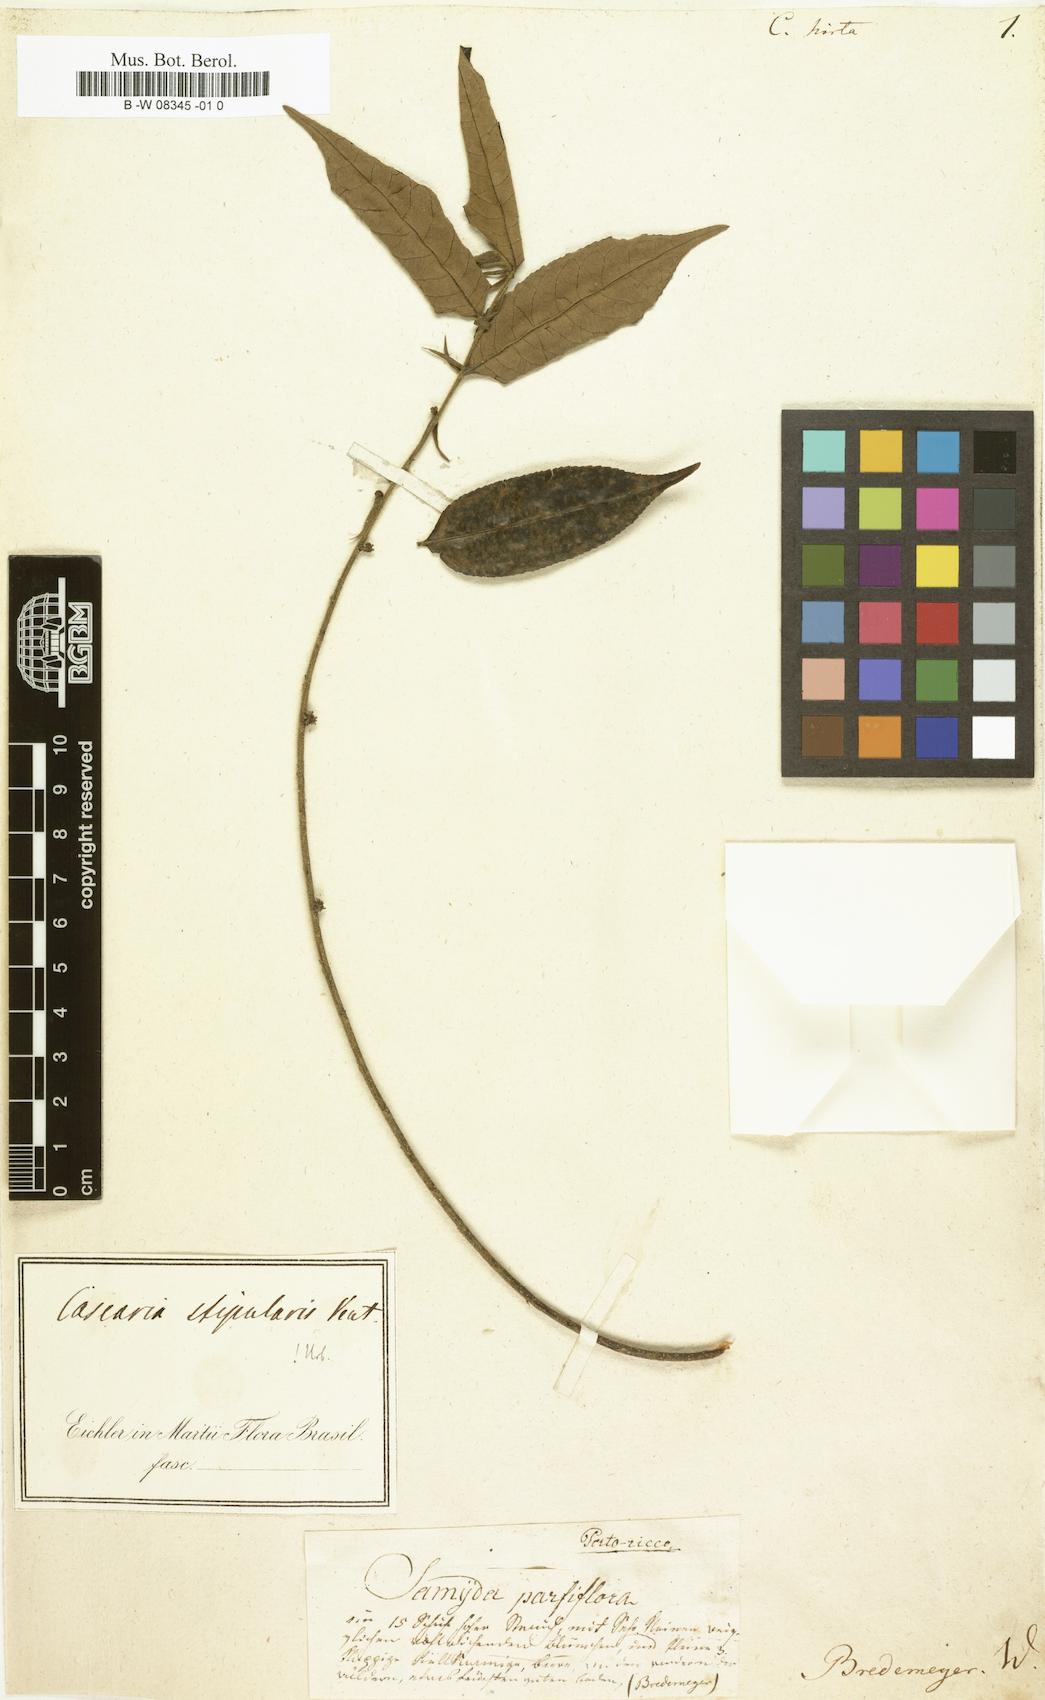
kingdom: Plantae
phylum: Tracheophyta
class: Magnoliopsida
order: Malpighiales
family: Salicaceae
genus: Casearia
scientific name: Casearia aculeata
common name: Cockspur
